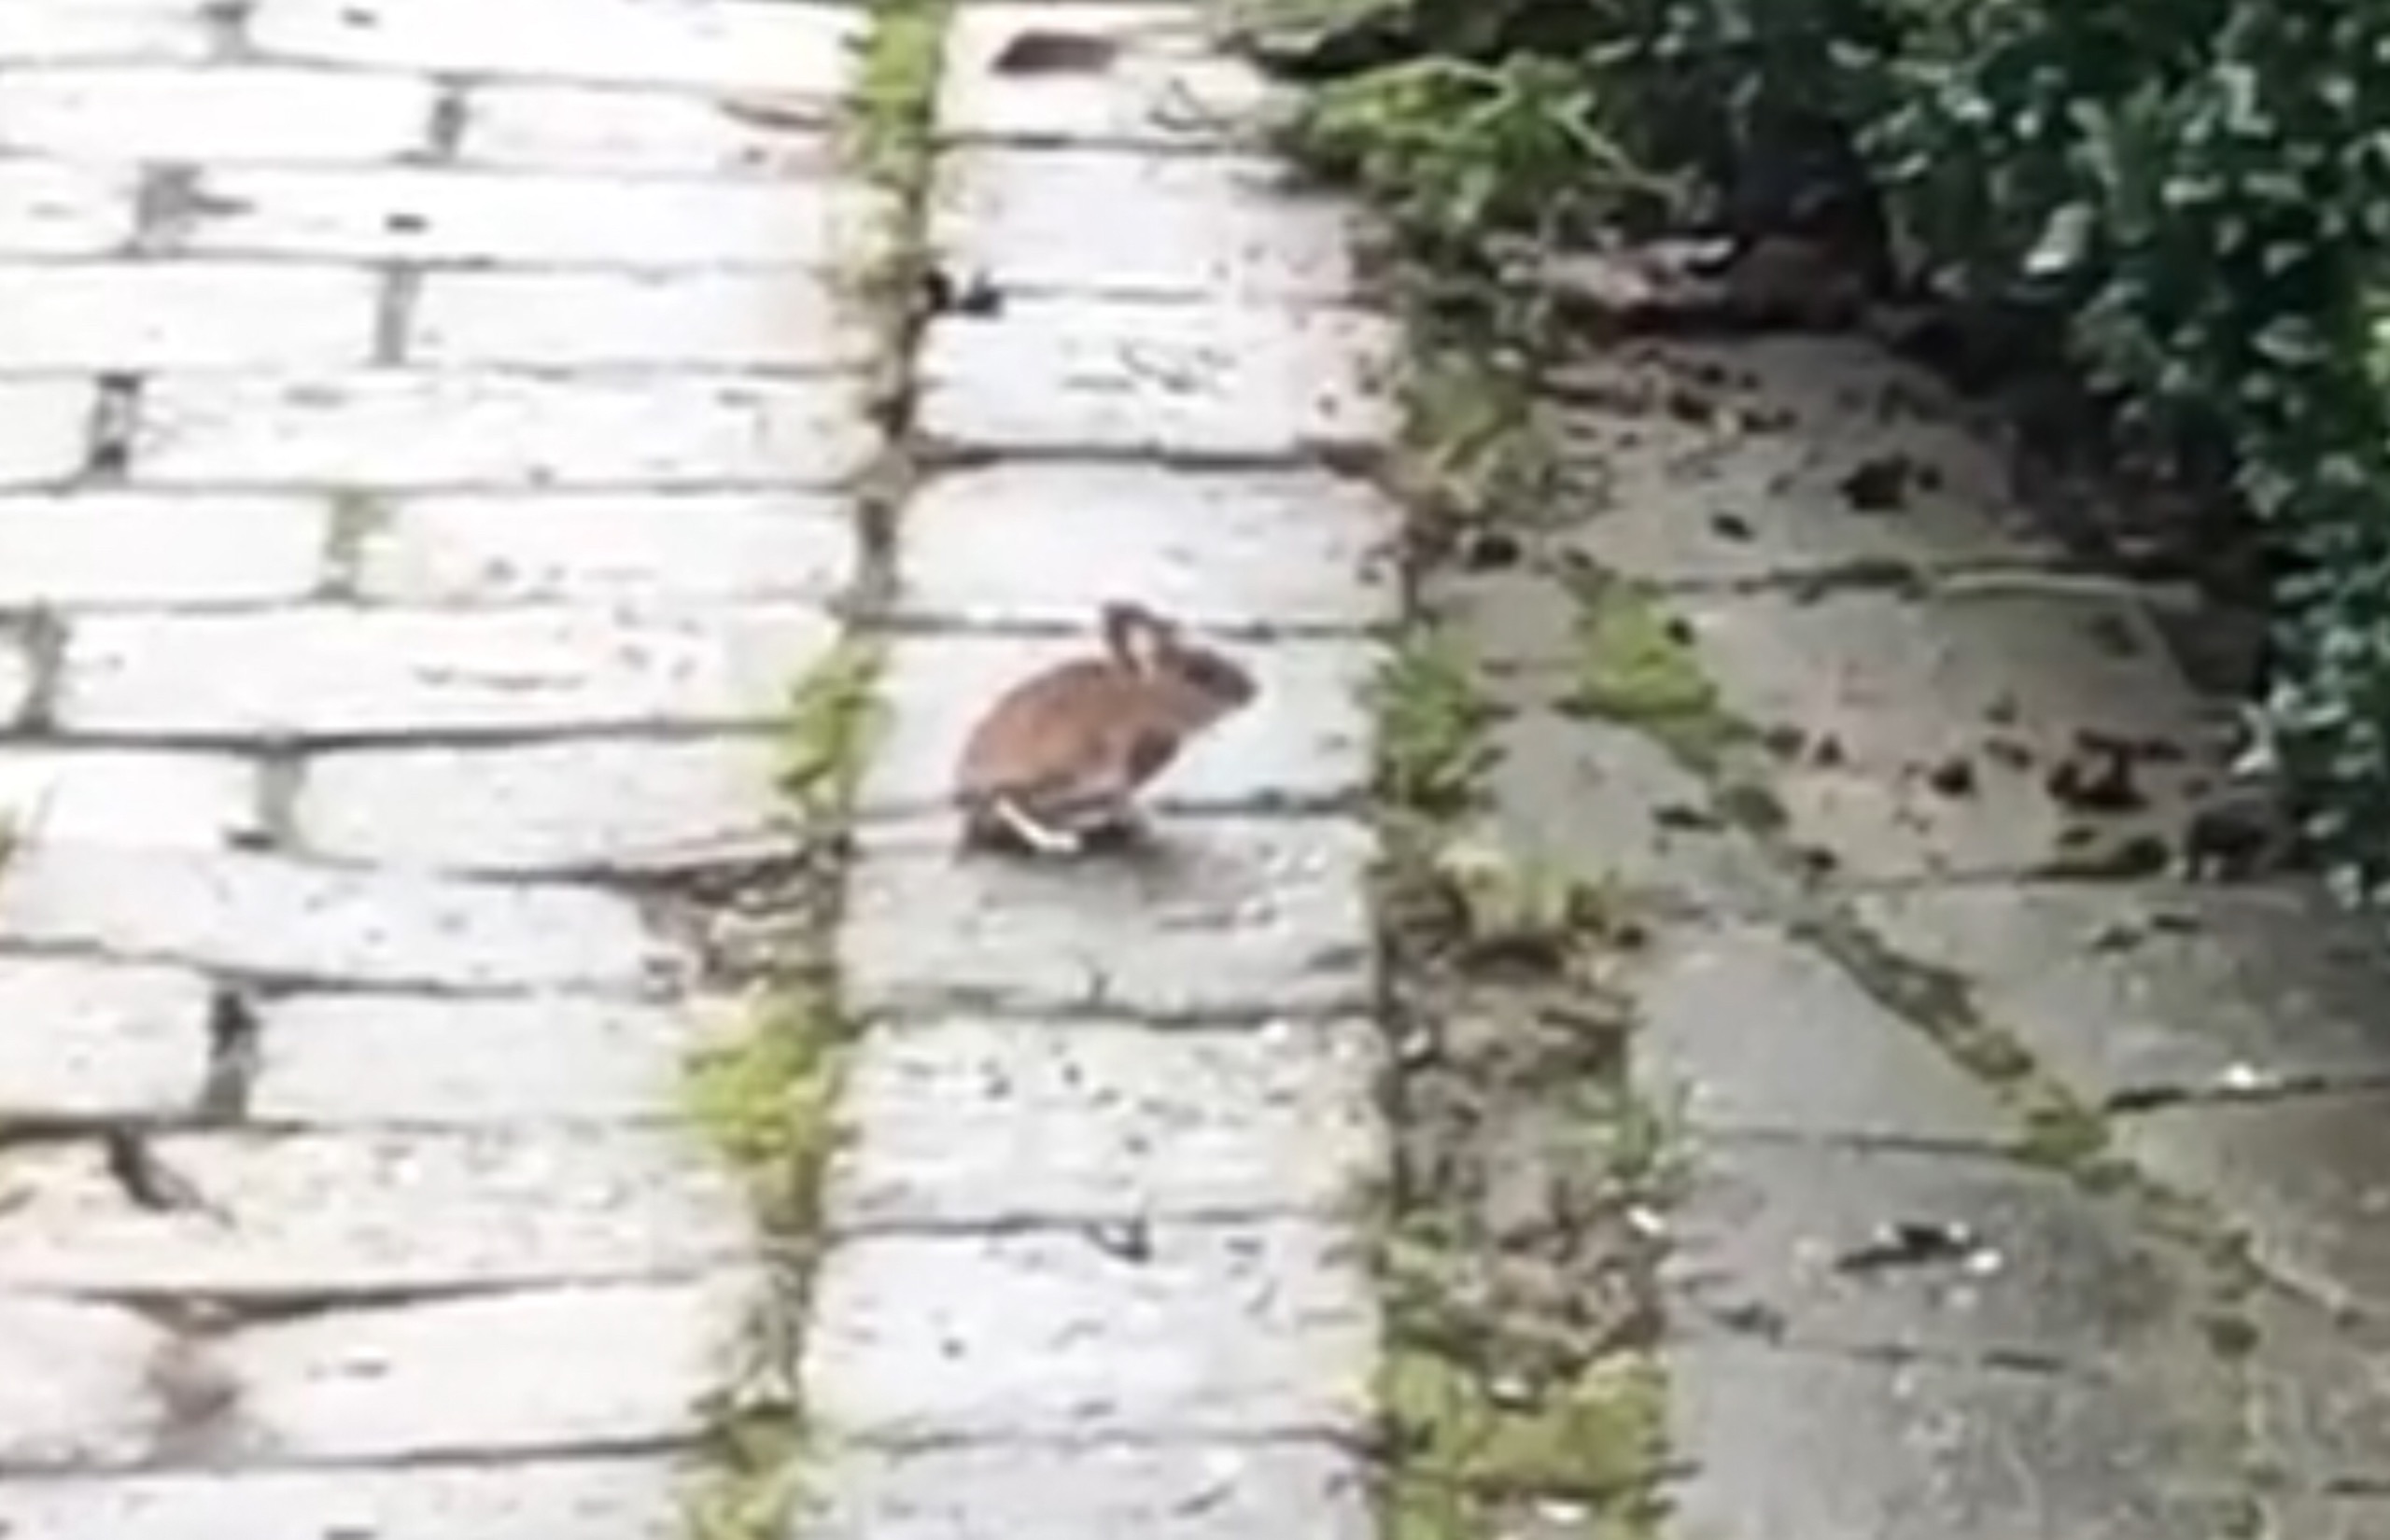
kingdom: Animalia
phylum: Chordata
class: Mammalia
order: Rodentia
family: Muridae
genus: Apodemus
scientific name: Apodemus flavicollis
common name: Halsbåndmus
